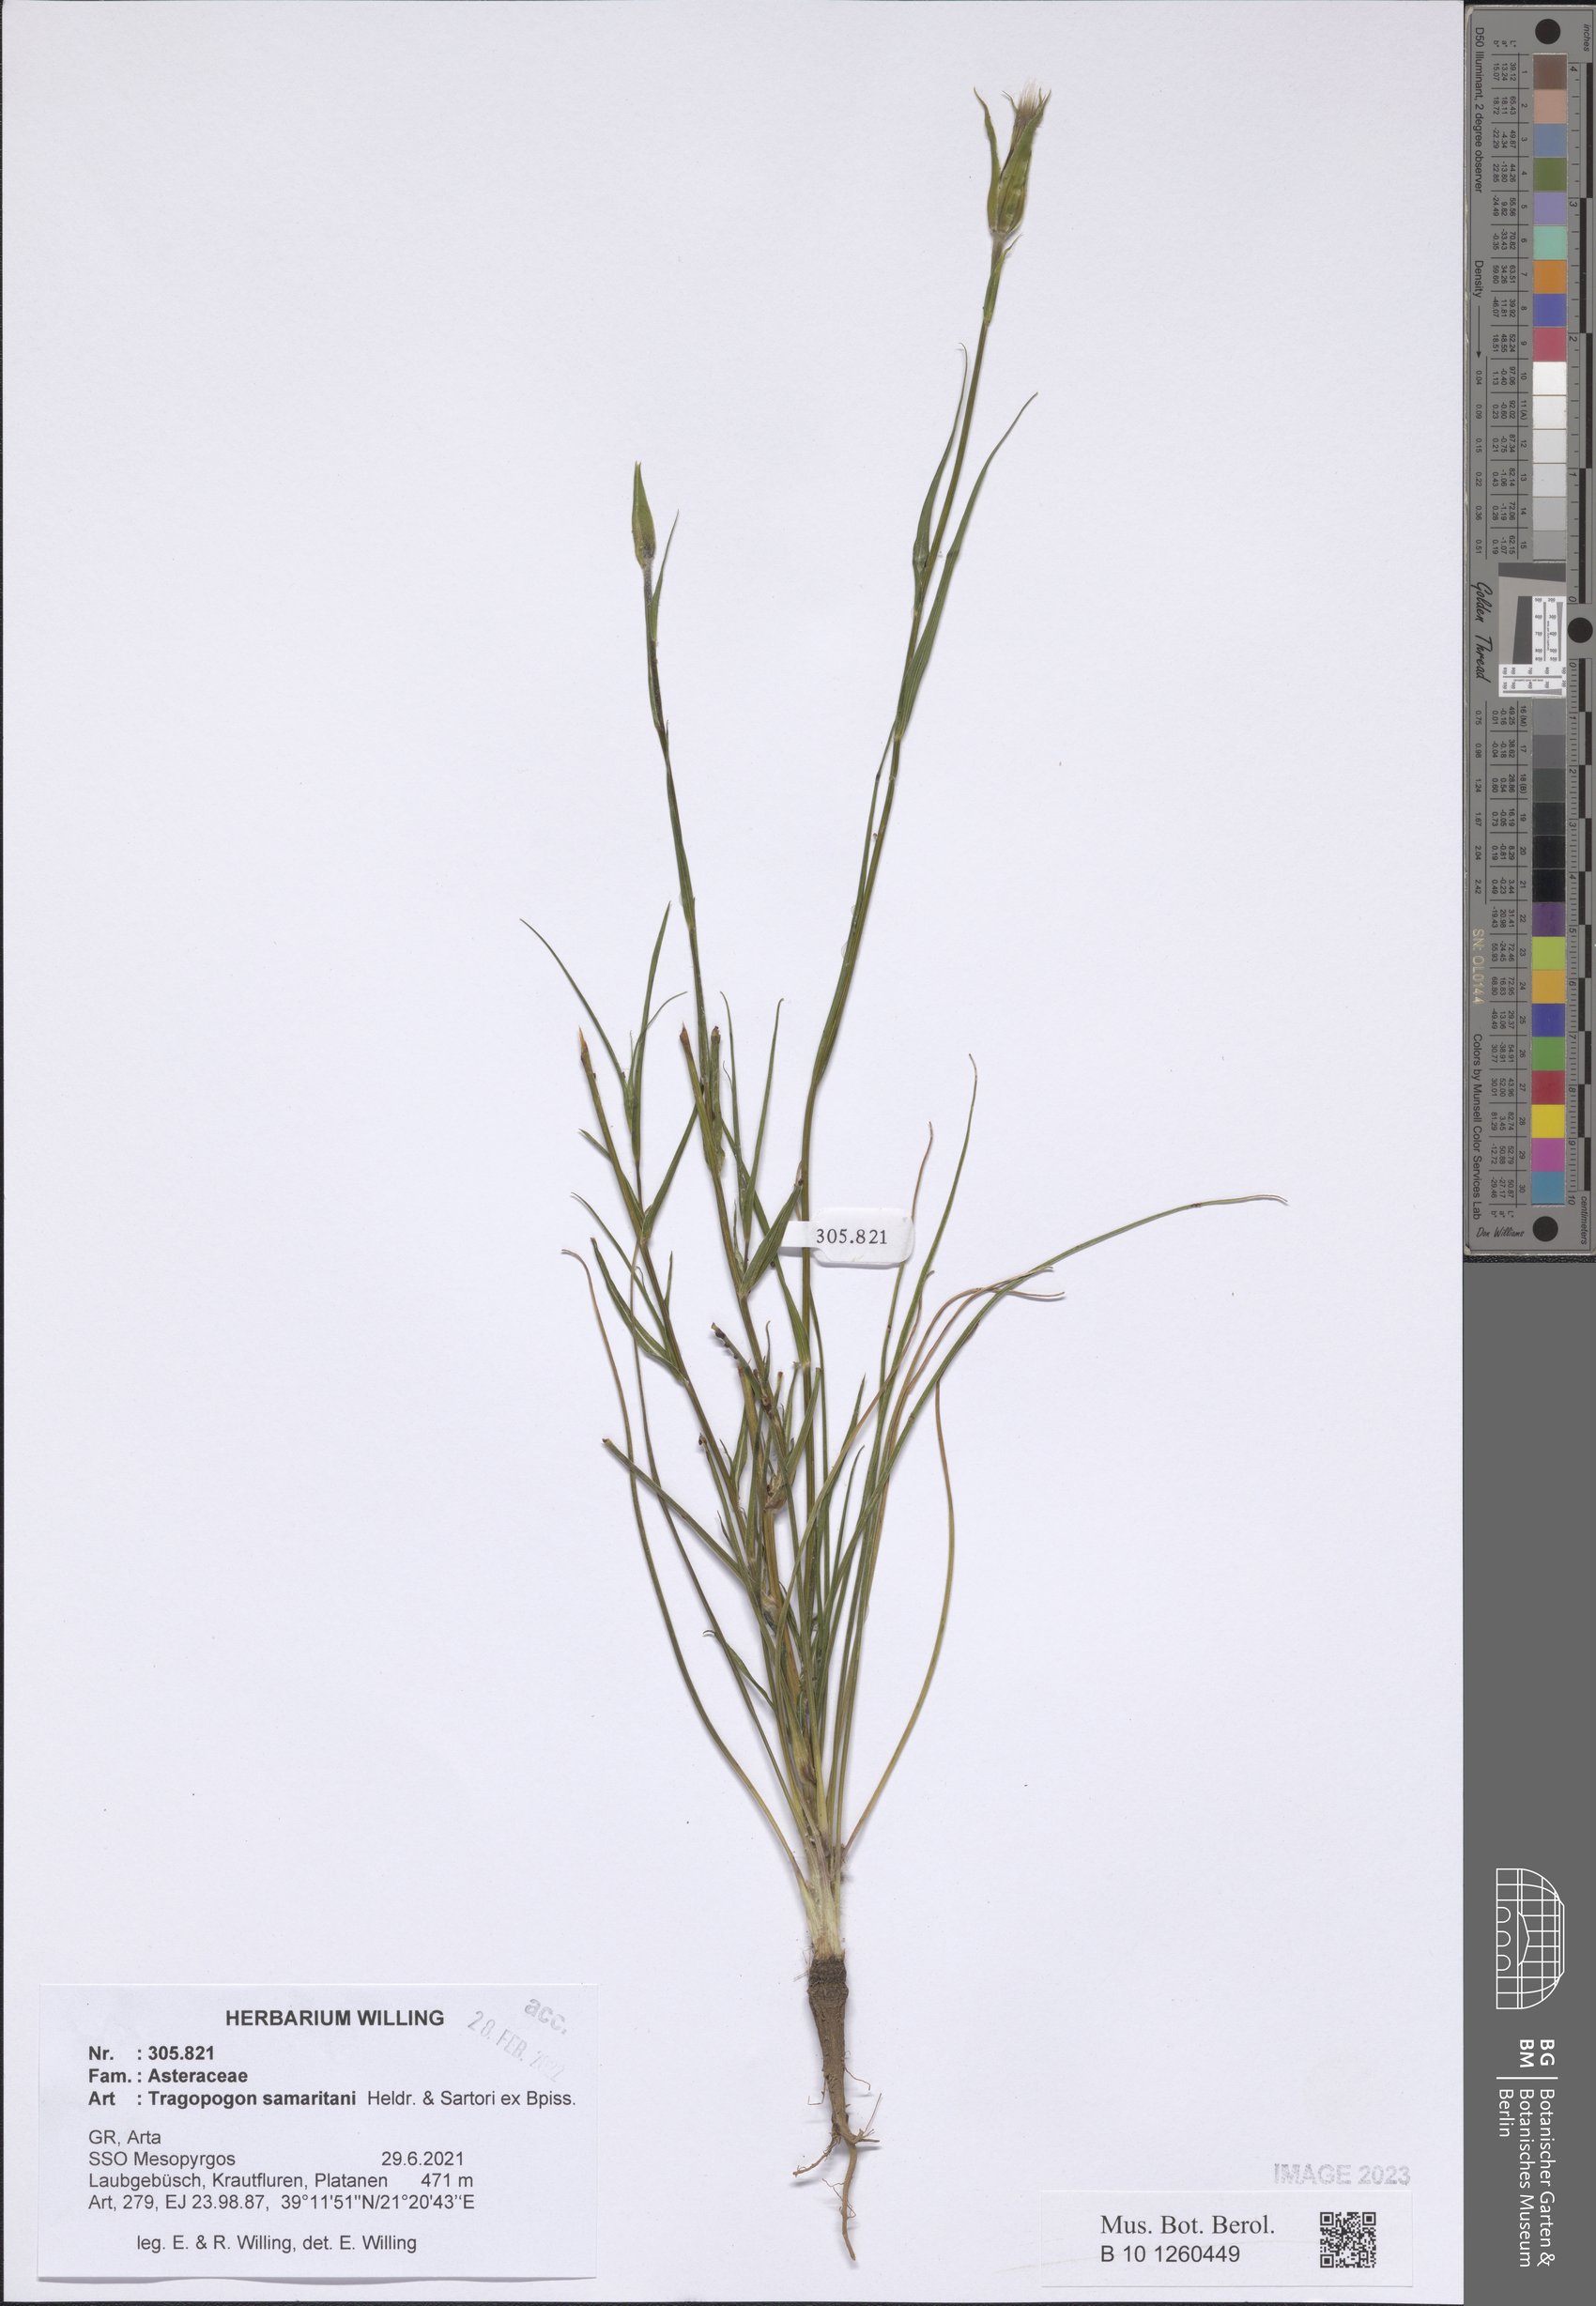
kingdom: Plantae
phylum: Tracheophyta
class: Magnoliopsida
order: Asterales
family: Asteraceae
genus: Tragopogon
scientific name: Tragopogon samaritani
